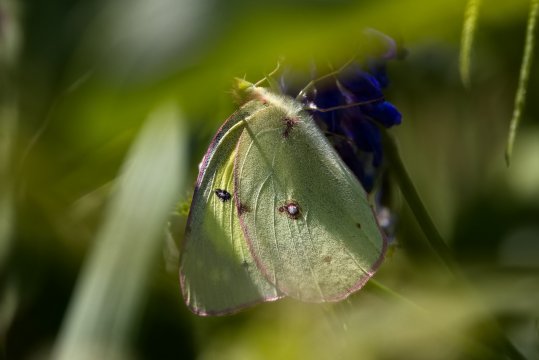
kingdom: Animalia
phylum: Arthropoda
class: Insecta
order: Lepidoptera
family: Pieridae
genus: Colias
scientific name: Colias philodice
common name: Clouded Sulphur
